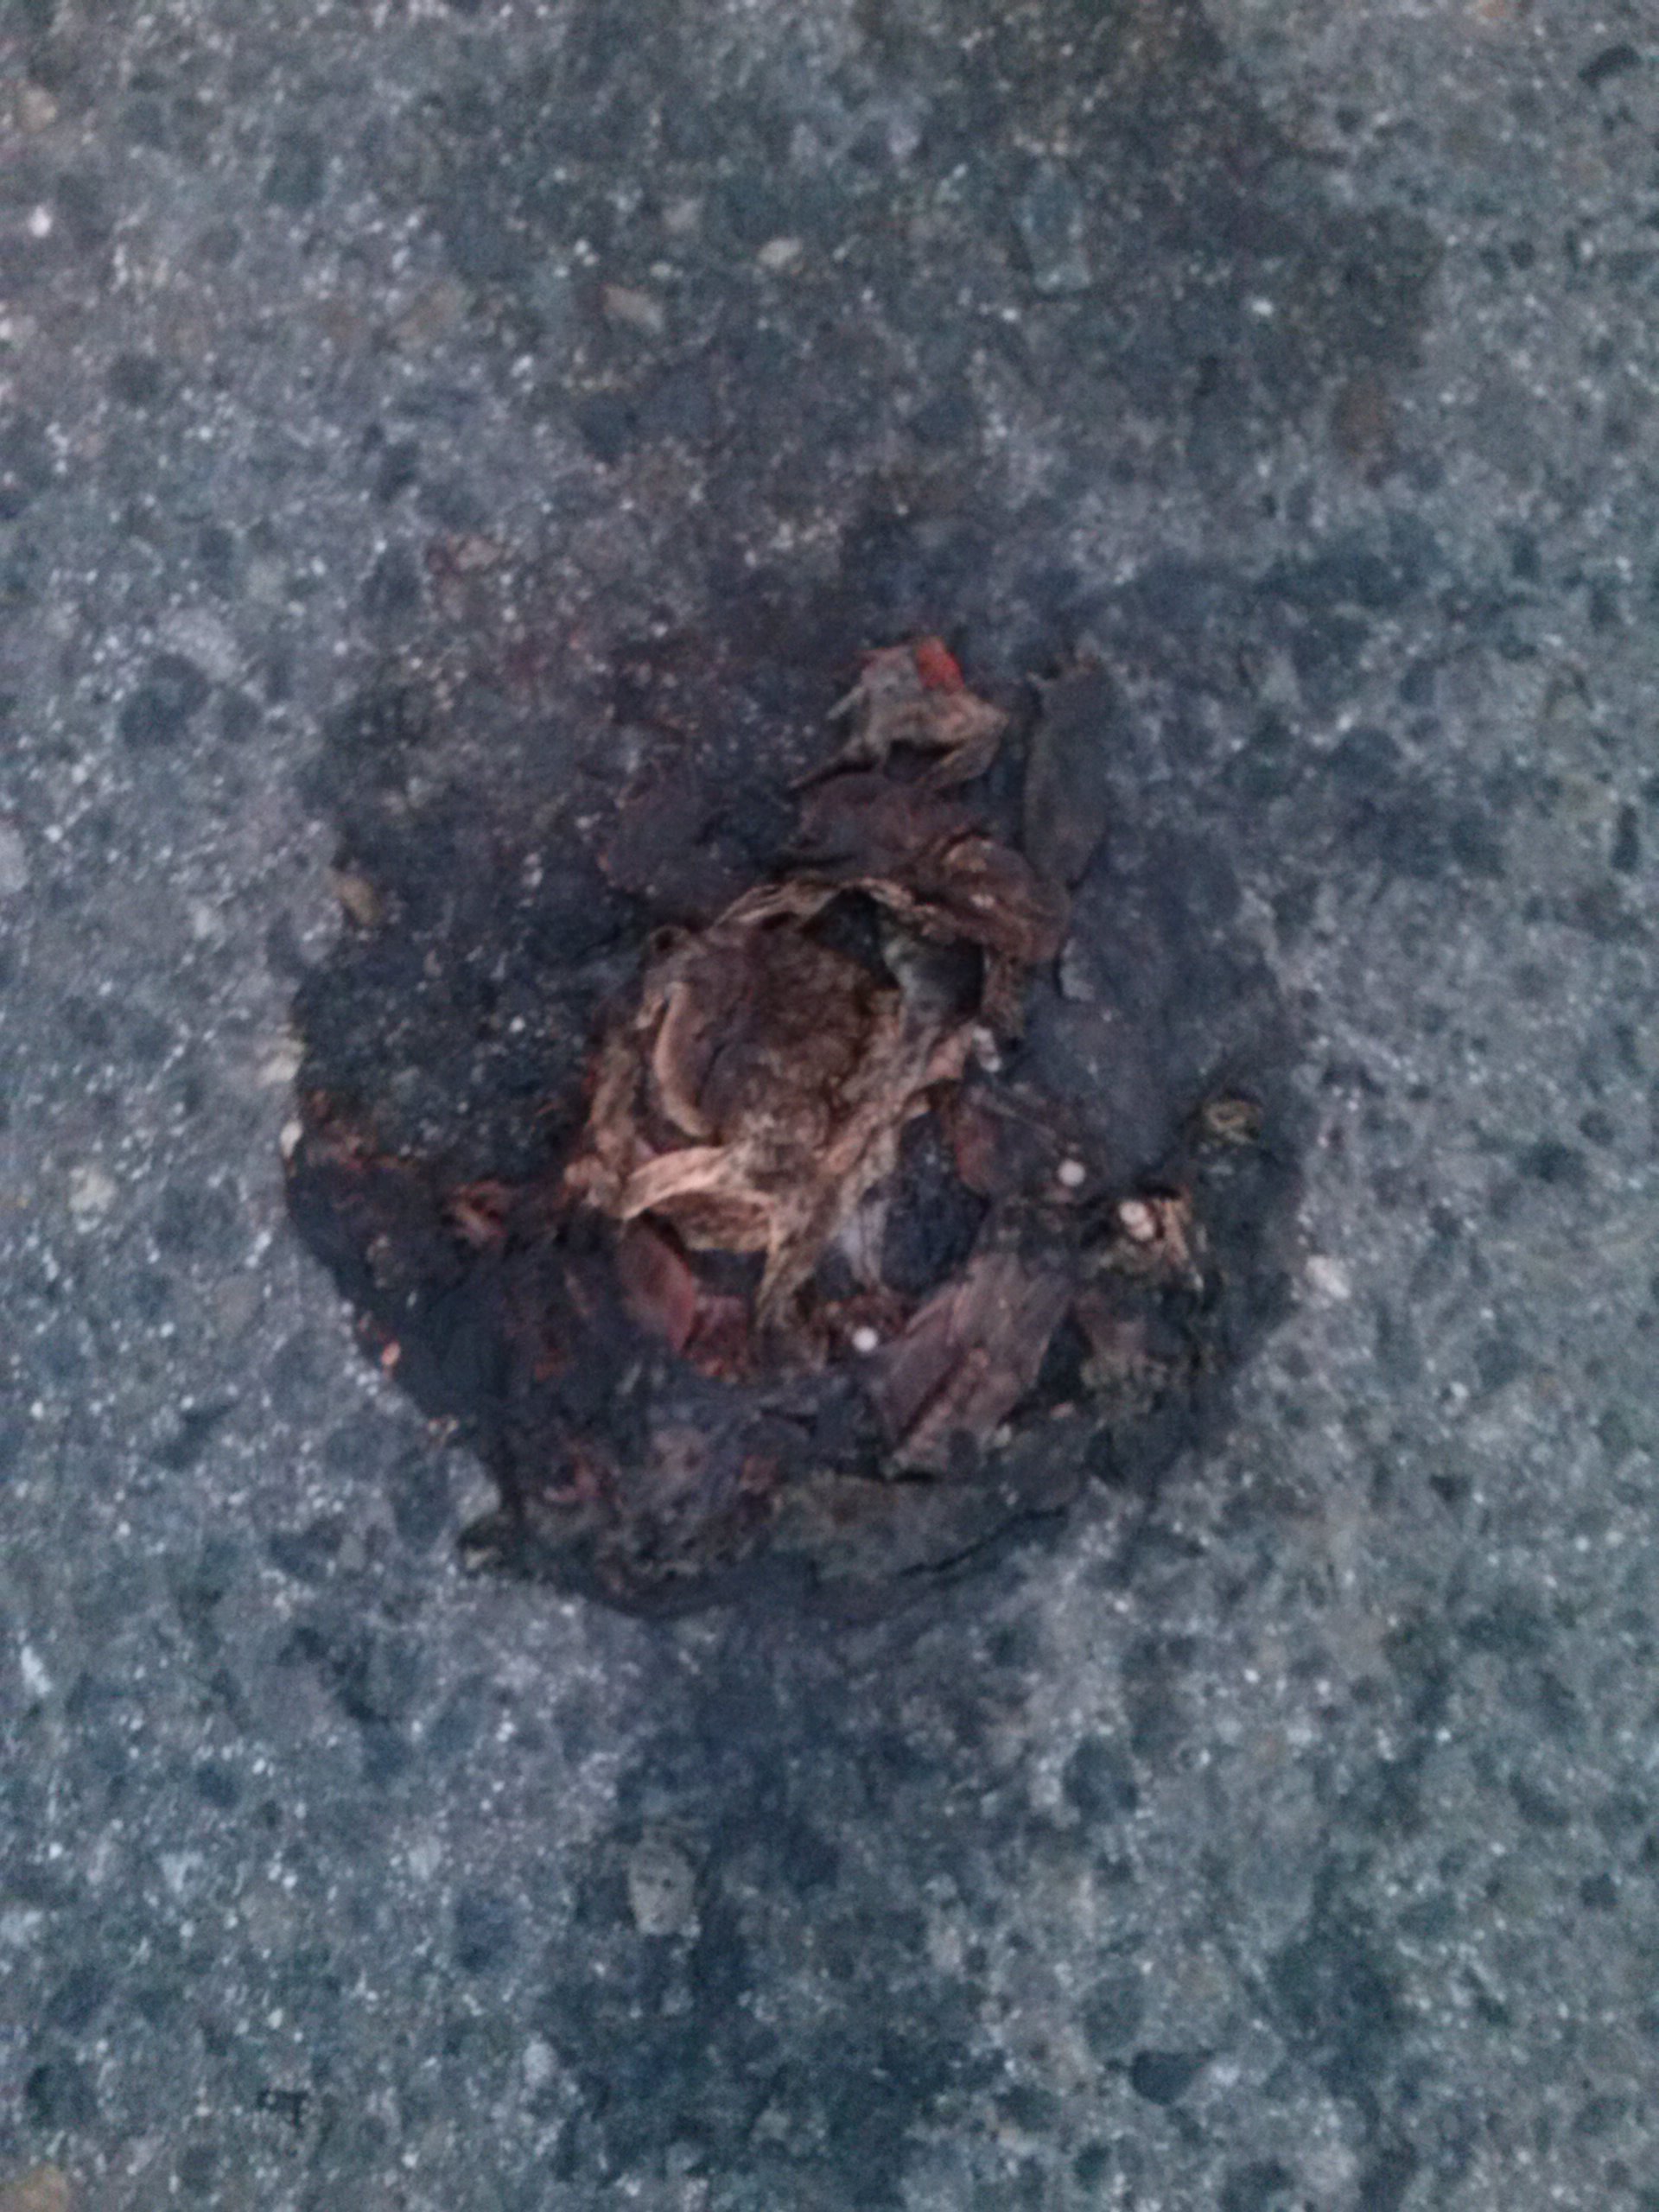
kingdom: Animalia
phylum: Chordata
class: Amphibia
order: Anura
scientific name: Anura
